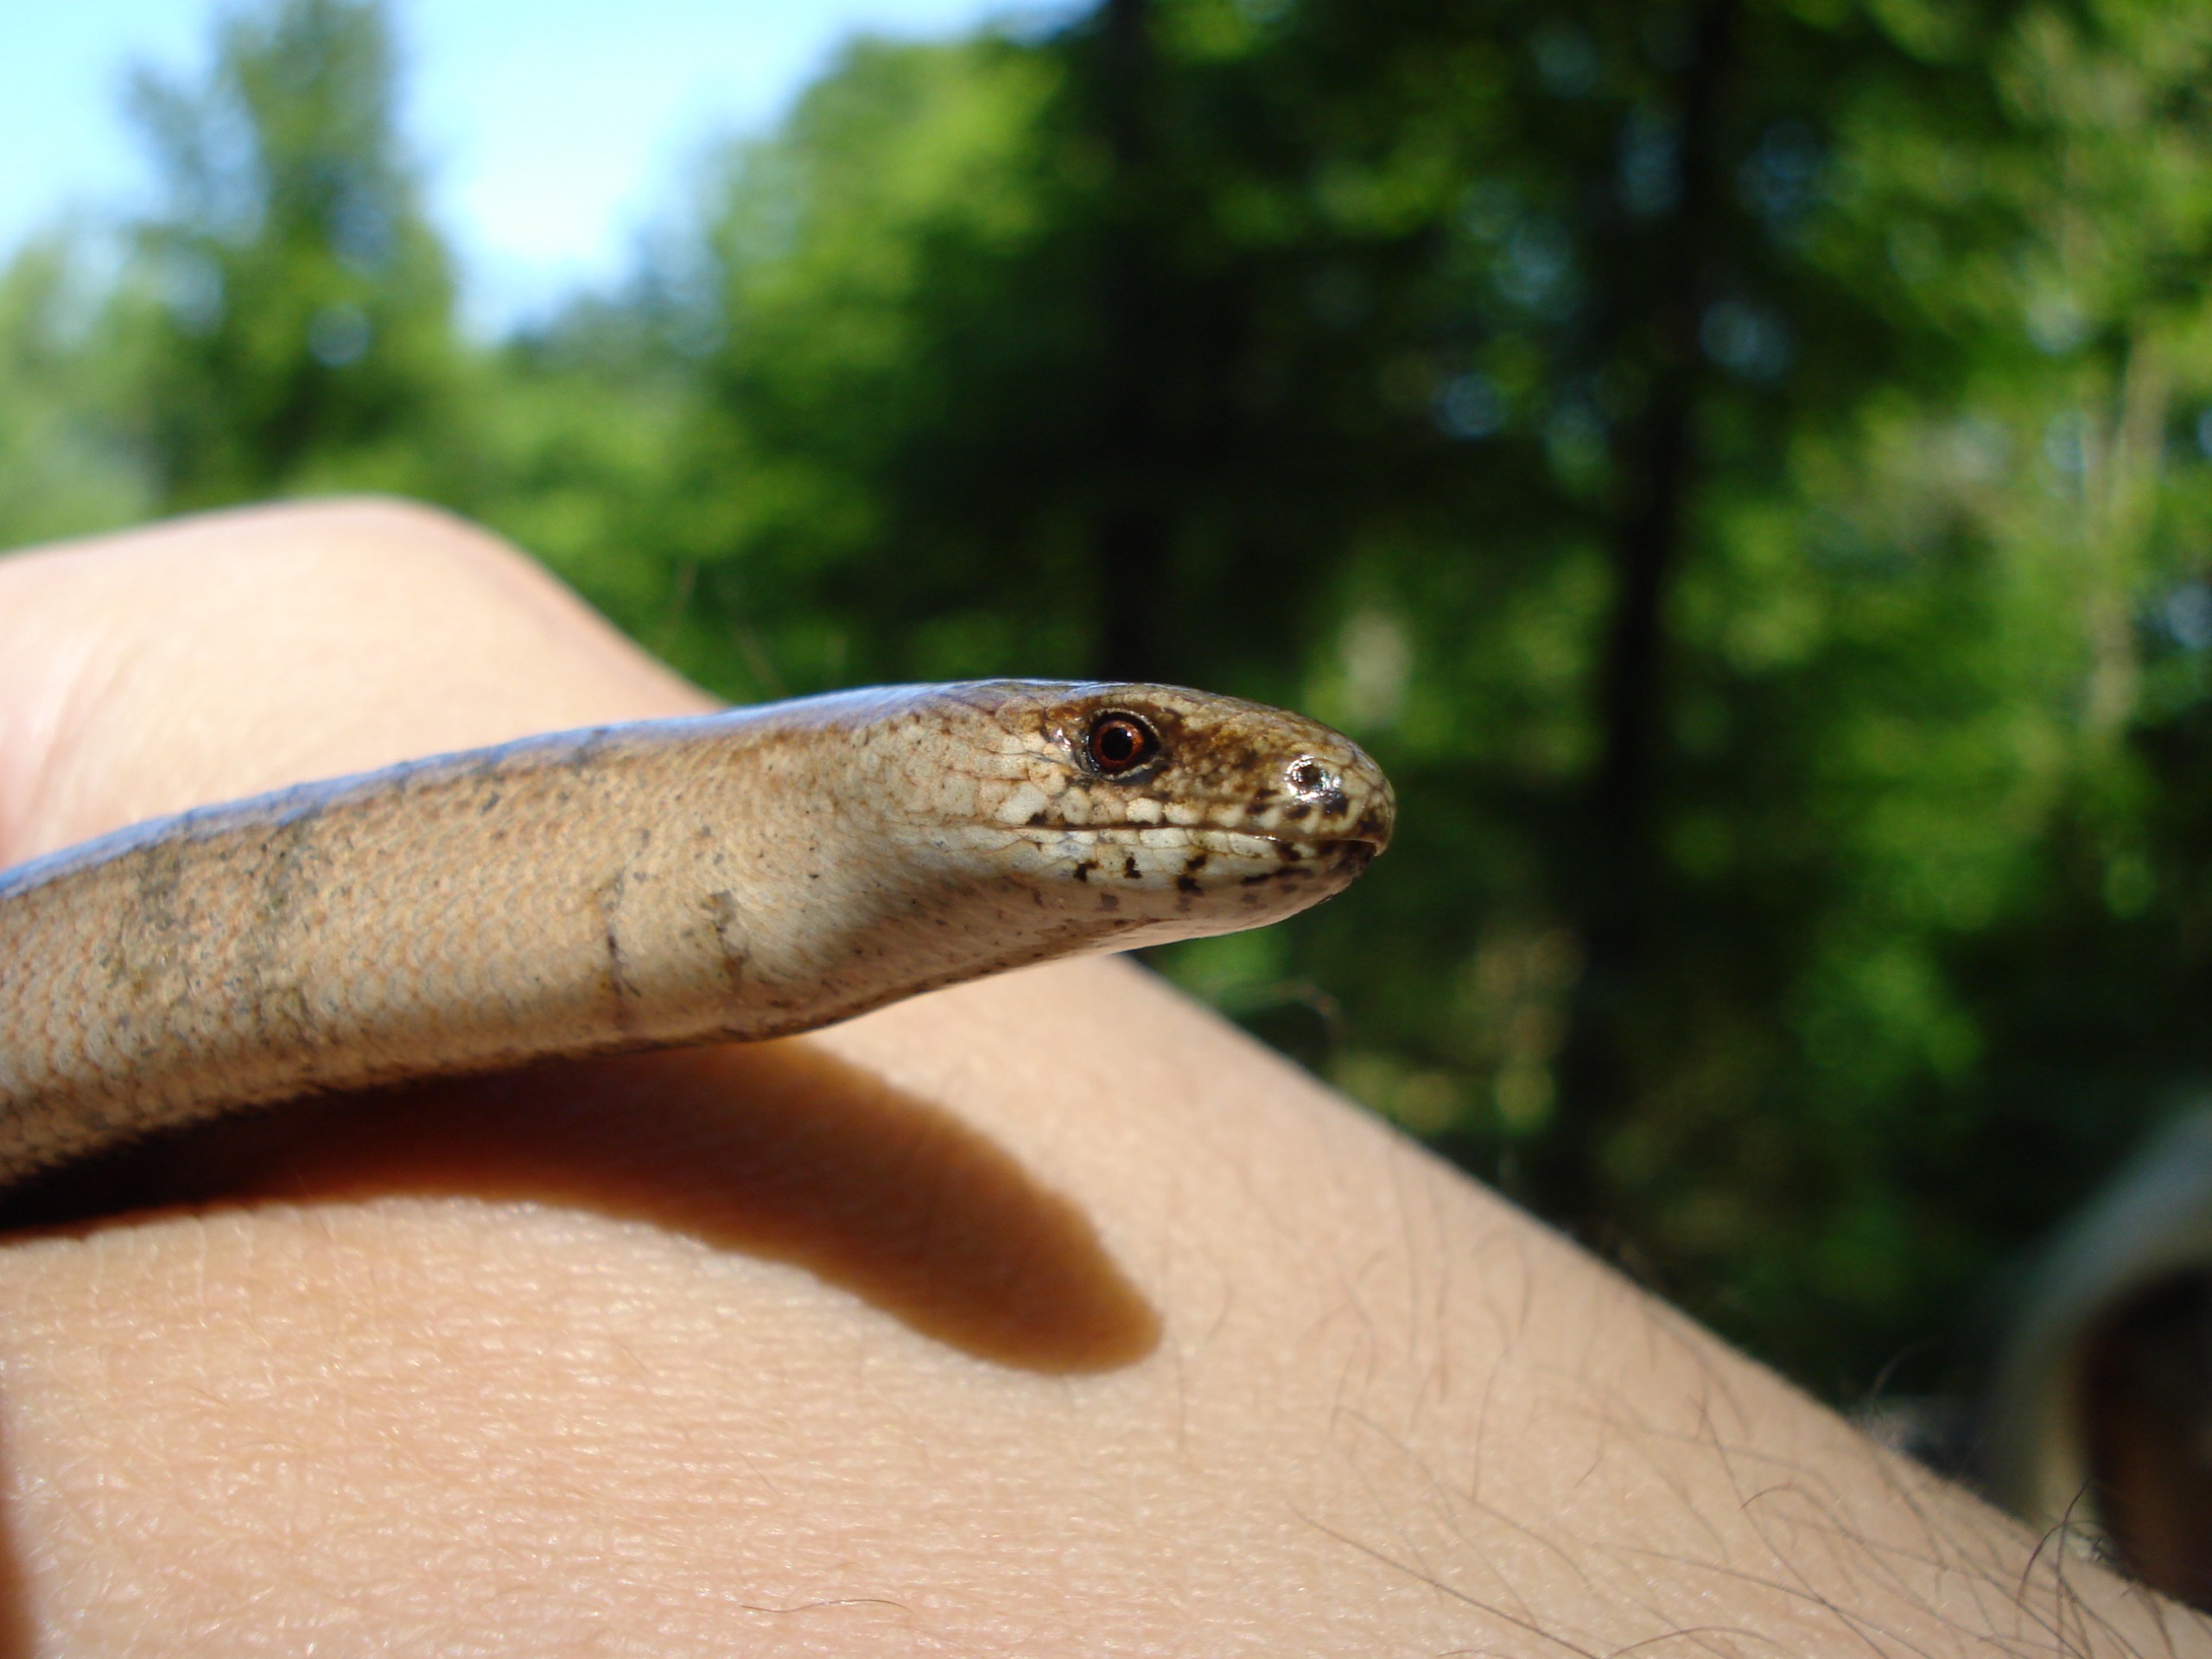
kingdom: Animalia
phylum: Chordata
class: Squamata
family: Anguidae
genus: Anguis
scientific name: Anguis fragilis
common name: Stålorm
